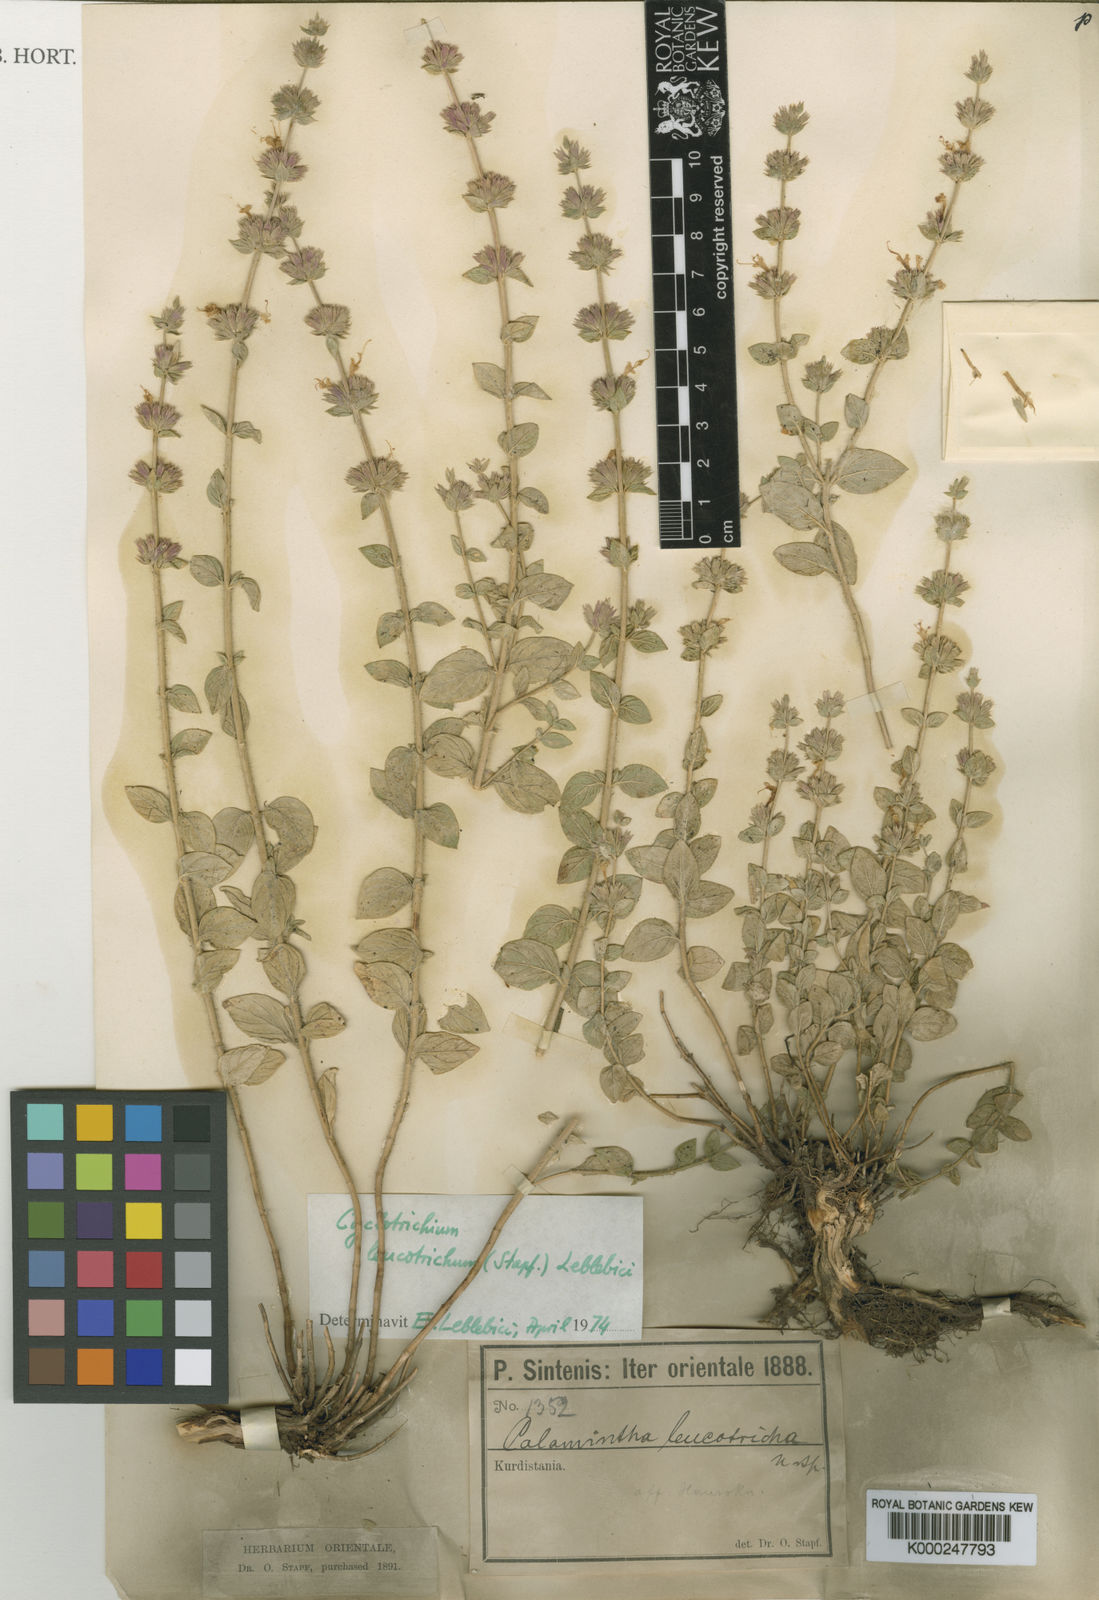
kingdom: Plantae
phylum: Tracheophyta
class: Magnoliopsida
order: Lamiales
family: Lamiaceae
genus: Cyclotrichium
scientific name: Cyclotrichium leucotrichum
